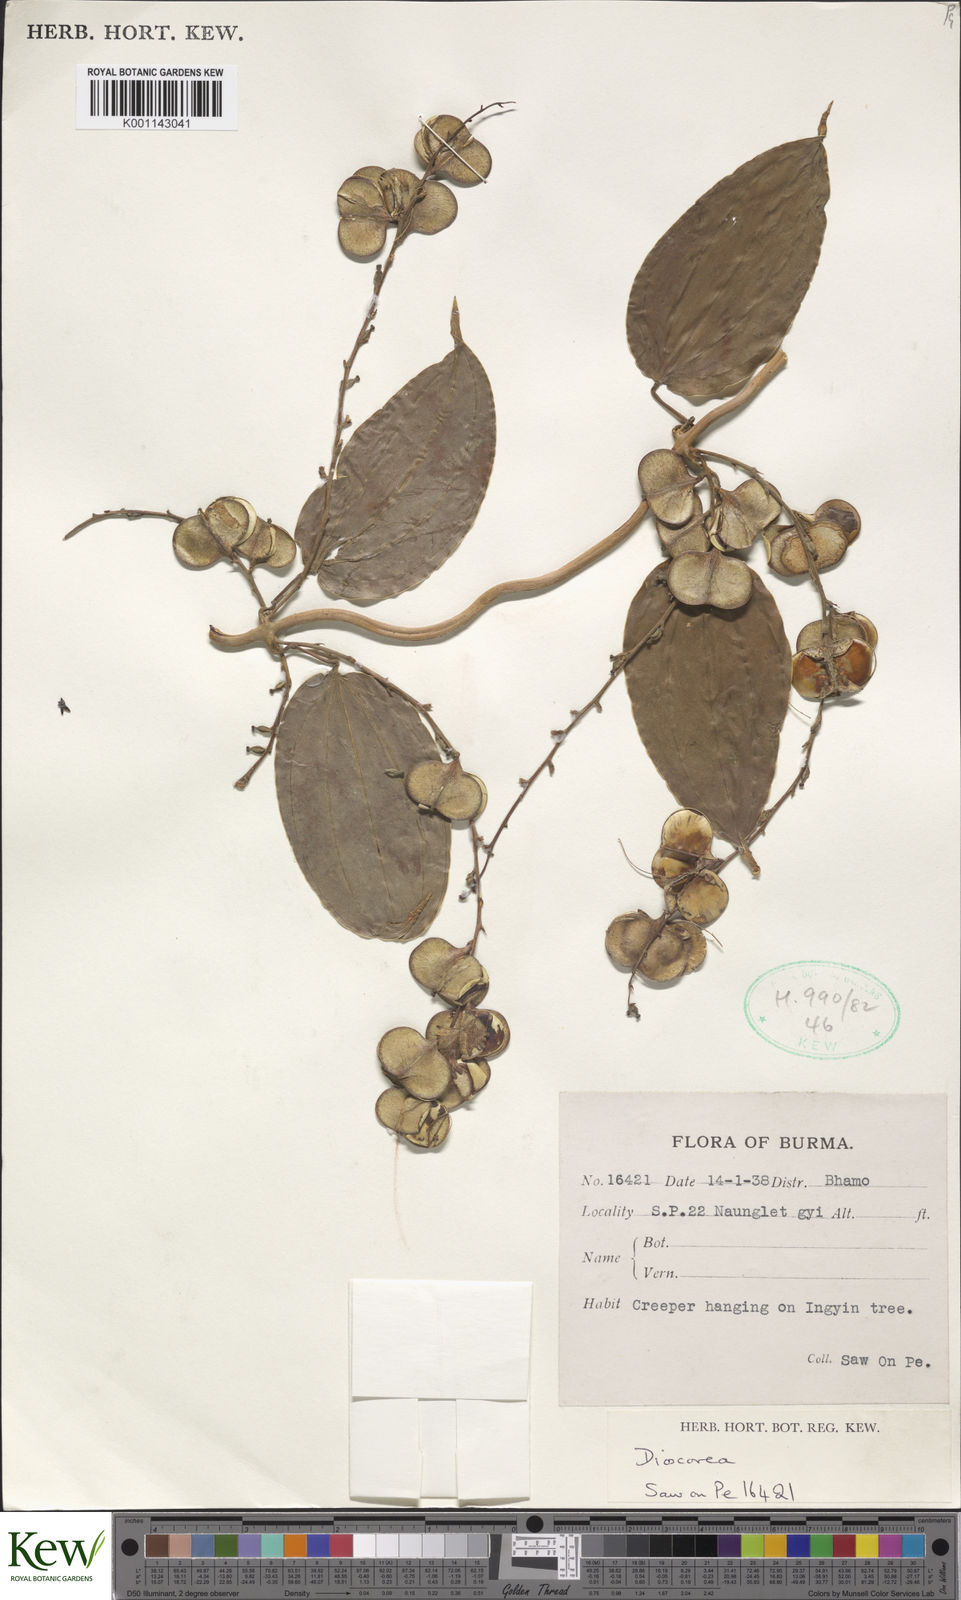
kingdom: Plantae
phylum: Tracheophyta
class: Liliopsida
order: Dioscoreales
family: Dioscoreaceae
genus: Dioscorea
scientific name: Dioscorea
